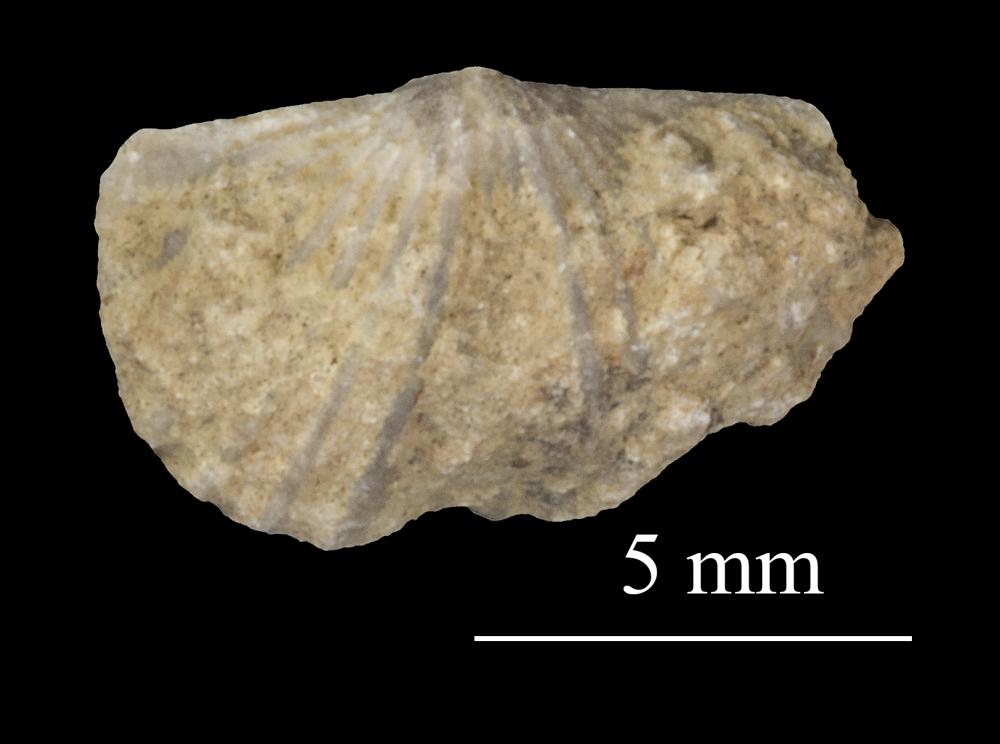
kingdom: Animalia
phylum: Brachiopoda
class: Rhynchonellata
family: Plectorthidae
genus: Platystrophia
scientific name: Platystrophia dentata
